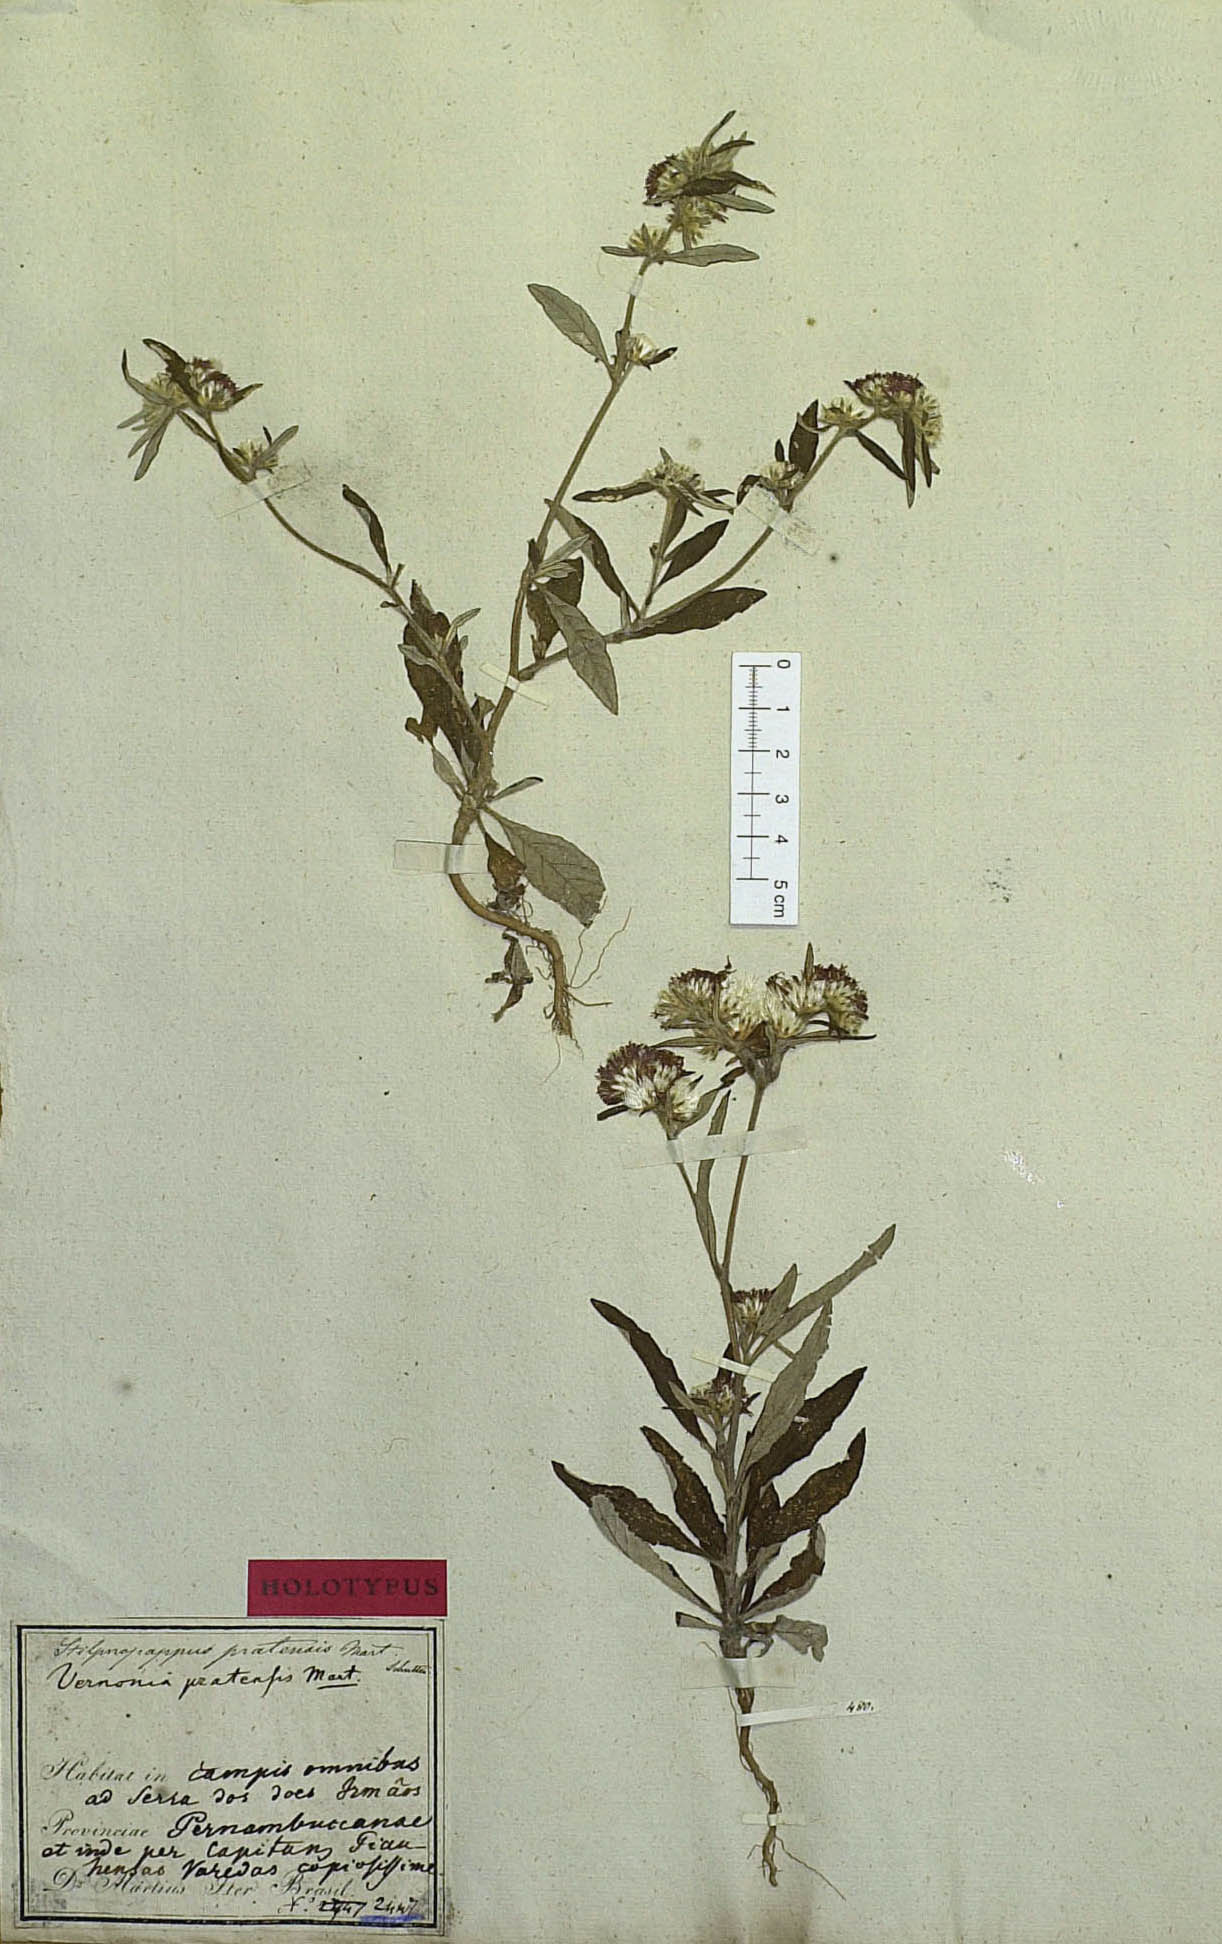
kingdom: Plantae
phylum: Tracheophyta
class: Magnoliopsida
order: Asterales
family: Asteraceae
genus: Stilpnopappus
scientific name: Stilpnopappus pratensis
